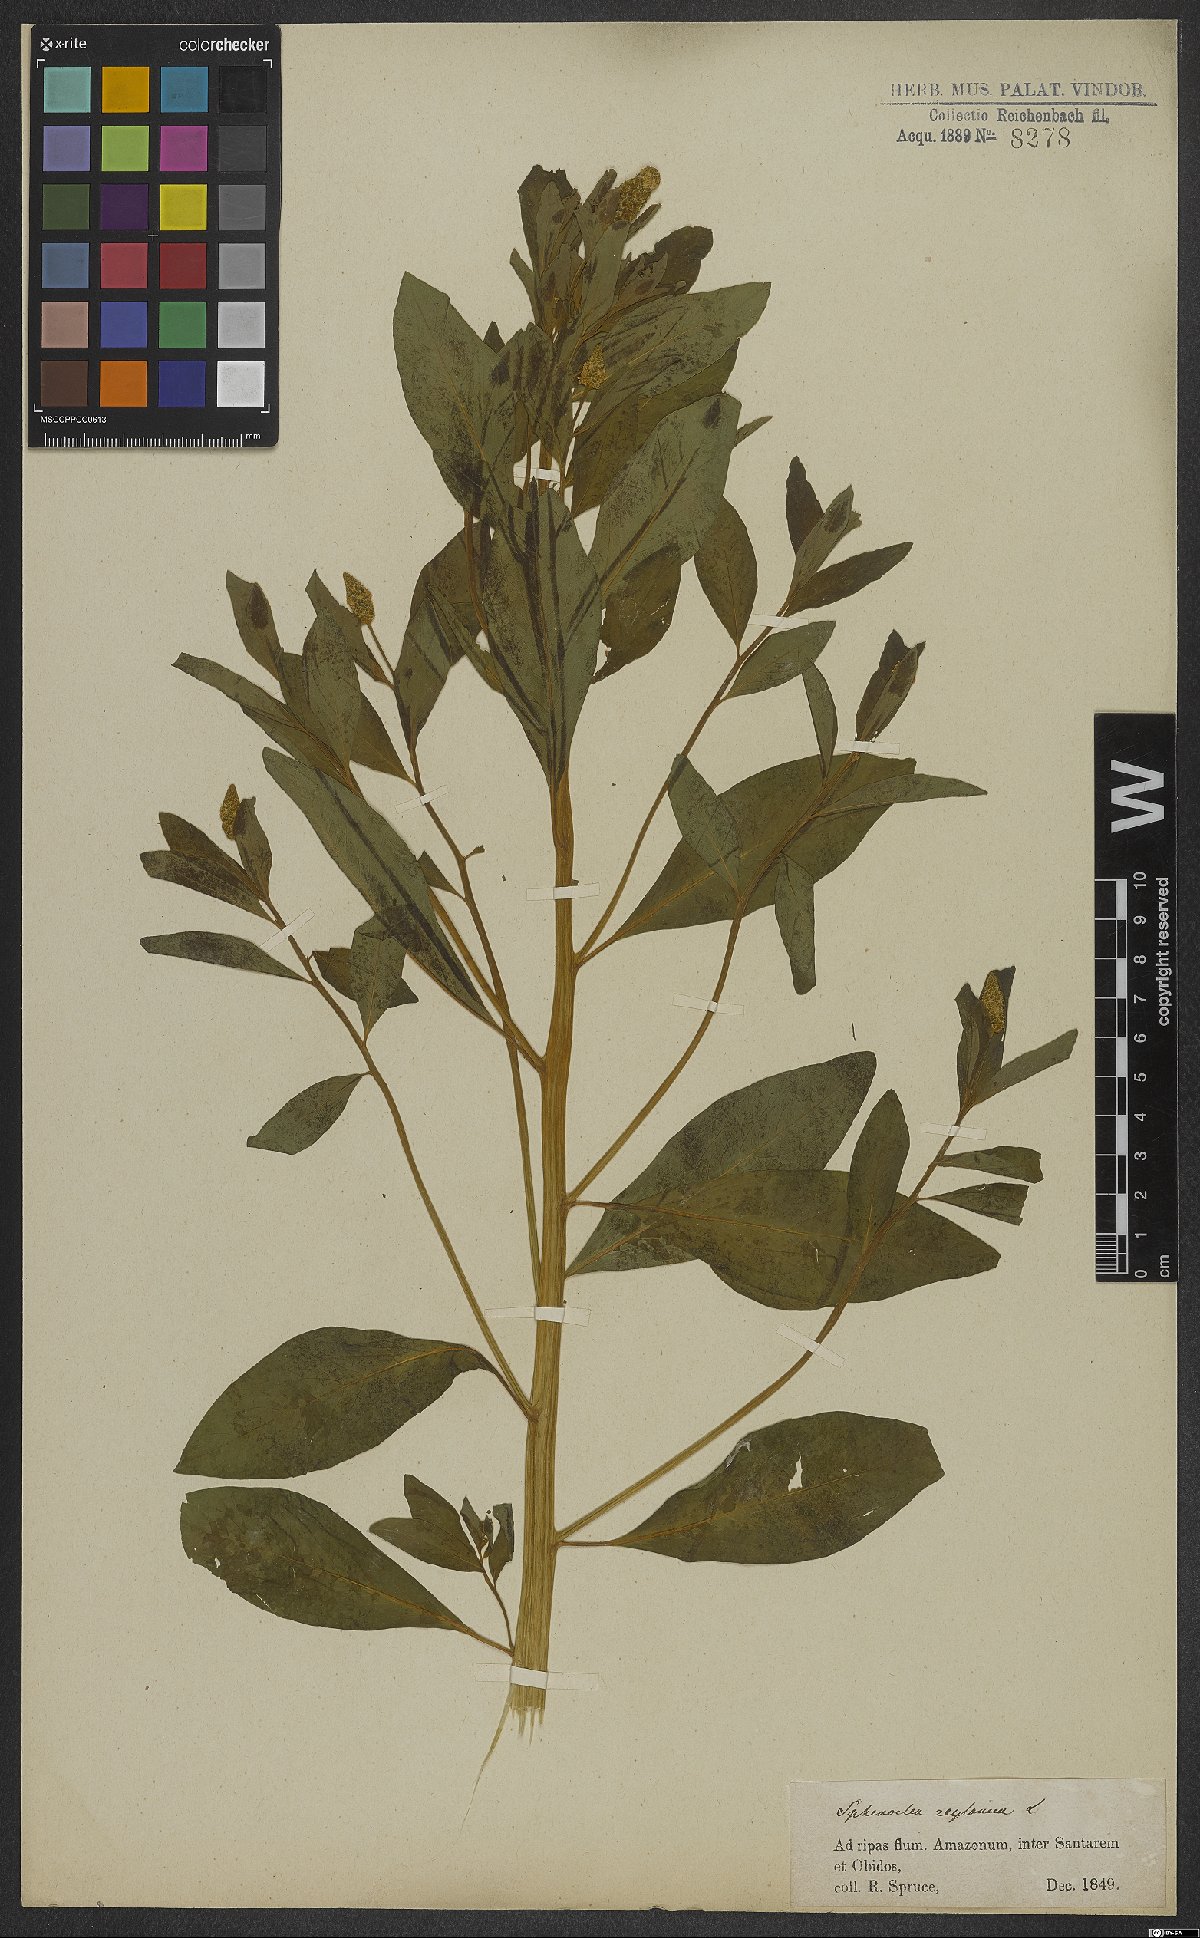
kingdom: Plantae
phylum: Tracheophyta
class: Magnoliopsida
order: Solanales
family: Sphenocleaceae
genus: Sphenoclea
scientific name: Sphenoclea zeylanica
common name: Chickenspike
